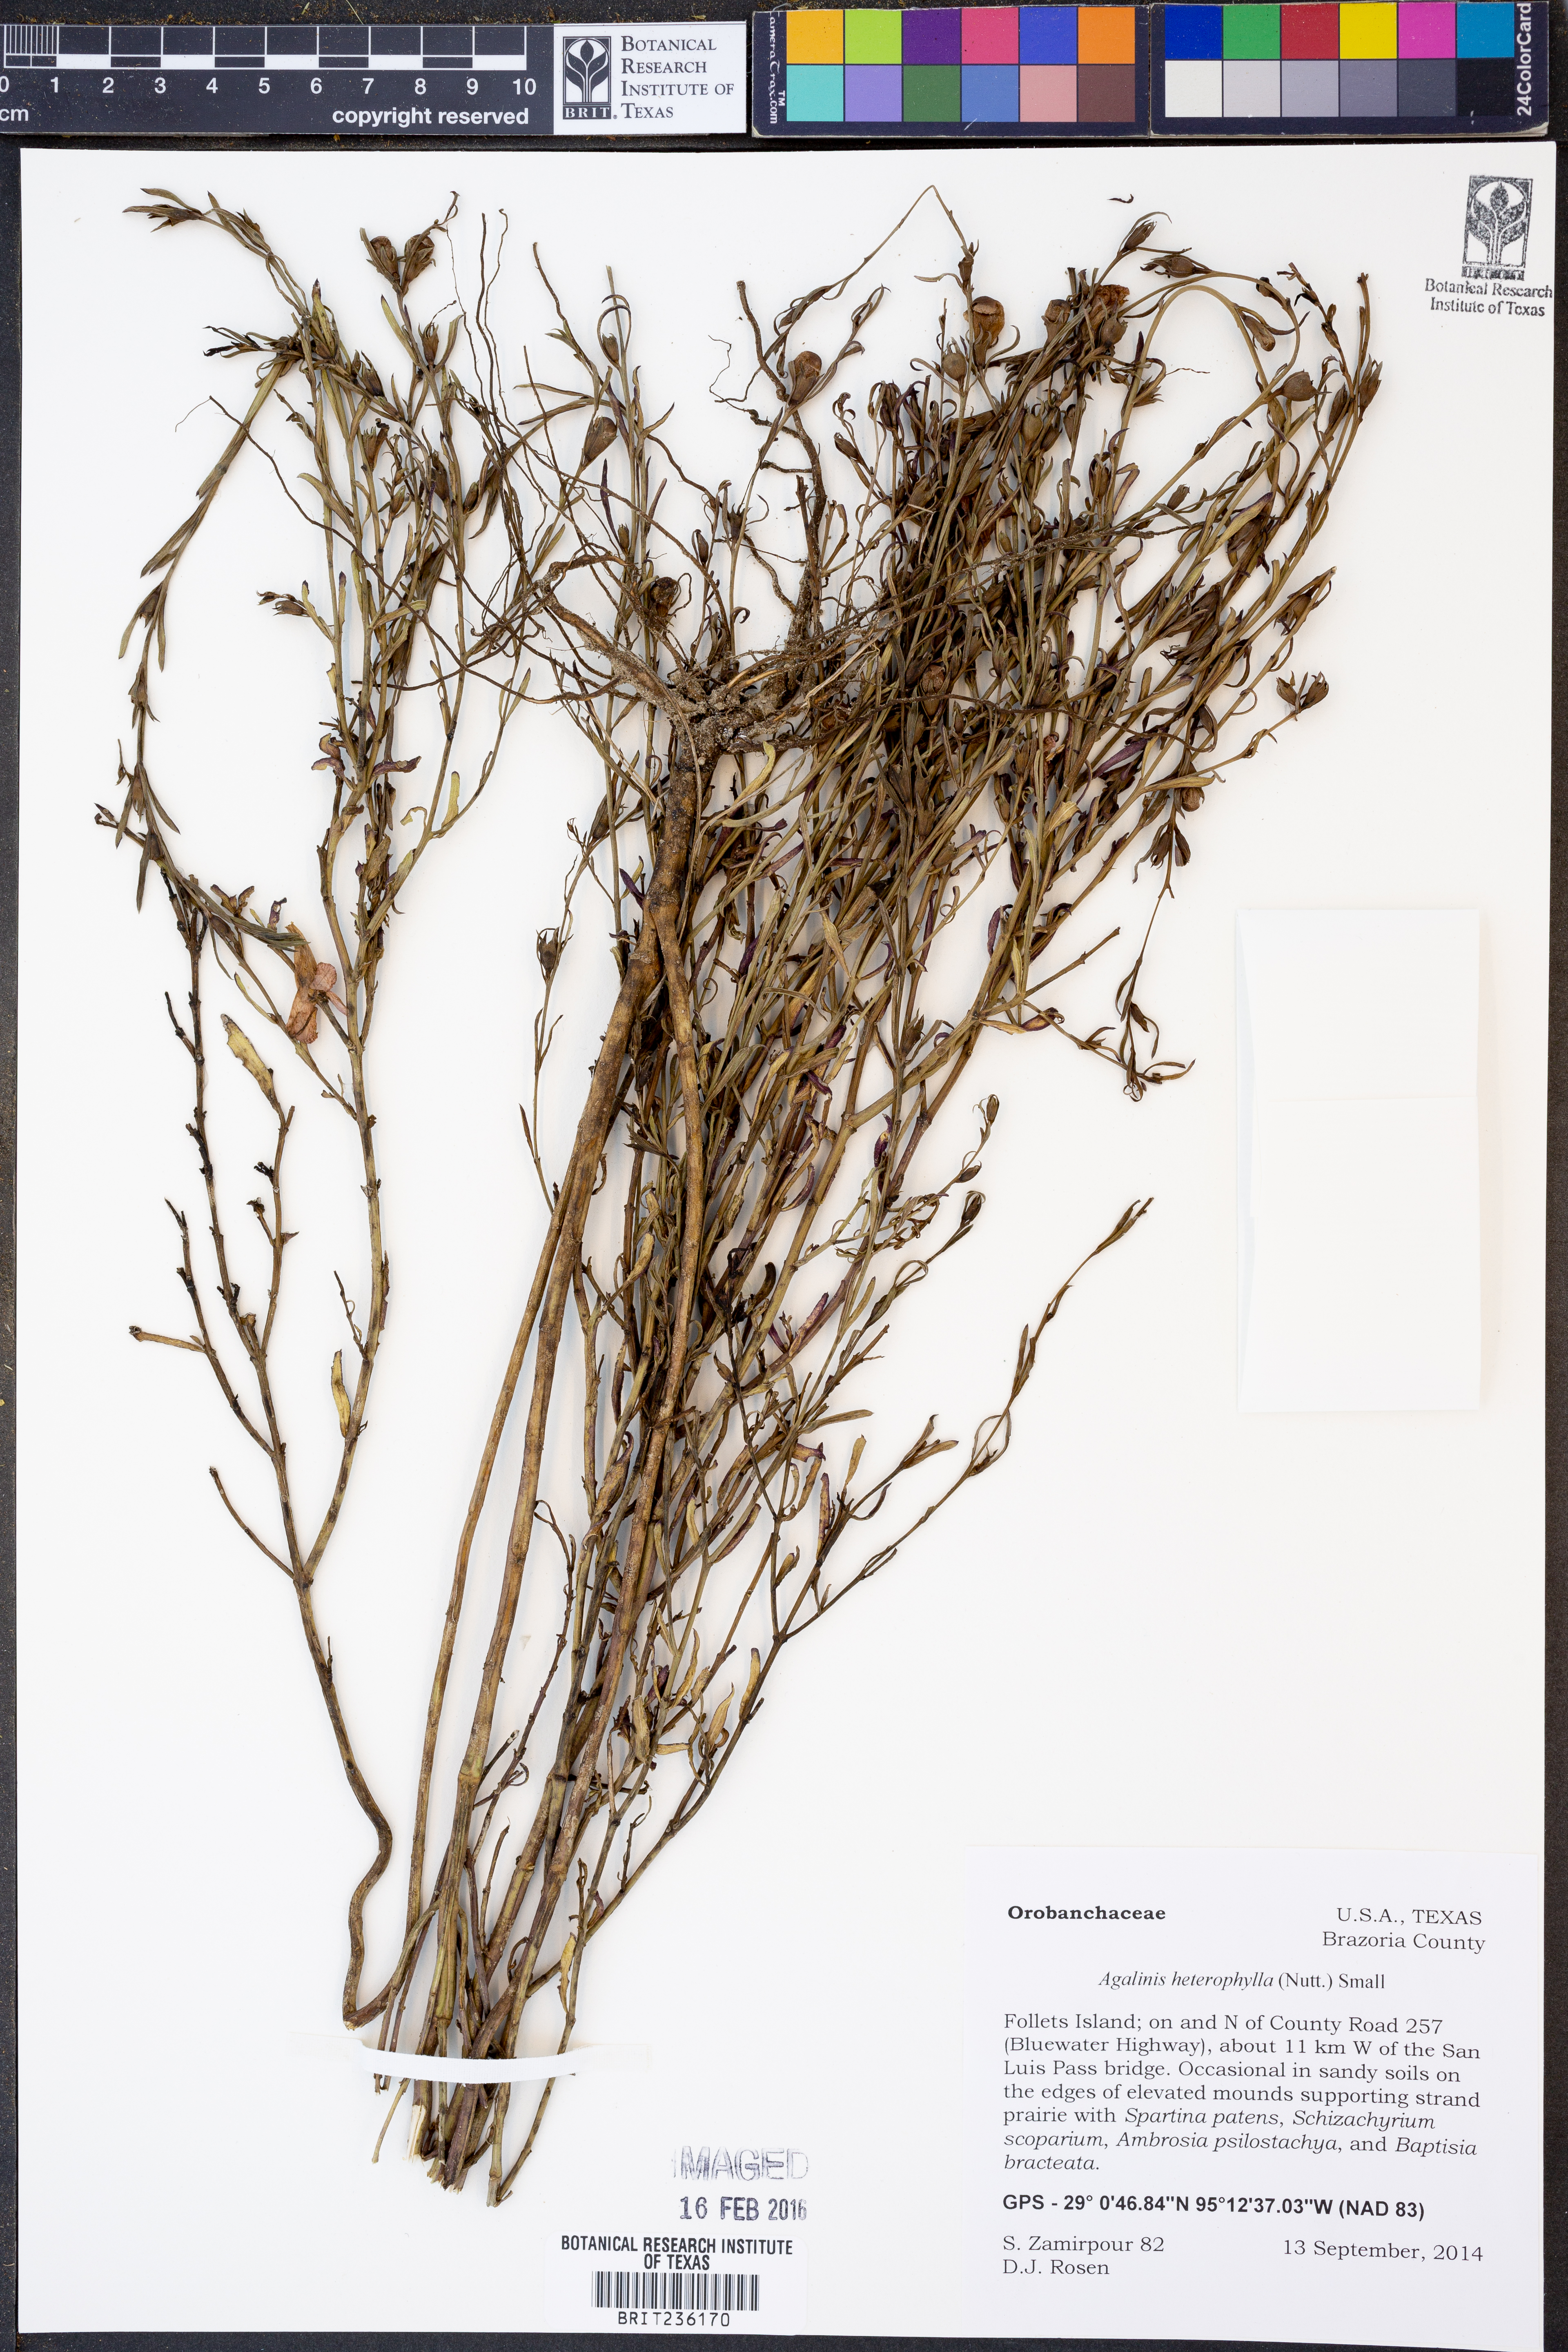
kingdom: Plantae
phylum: Tracheophyta
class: Magnoliopsida
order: Lamiales
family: Orobanchaceae
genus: Agalinis
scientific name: Agalinis heterophylla
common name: Prairie agalinis
